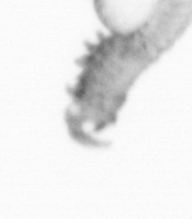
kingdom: Animalia
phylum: Annelida
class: Polychaeta
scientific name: Polychaeta
